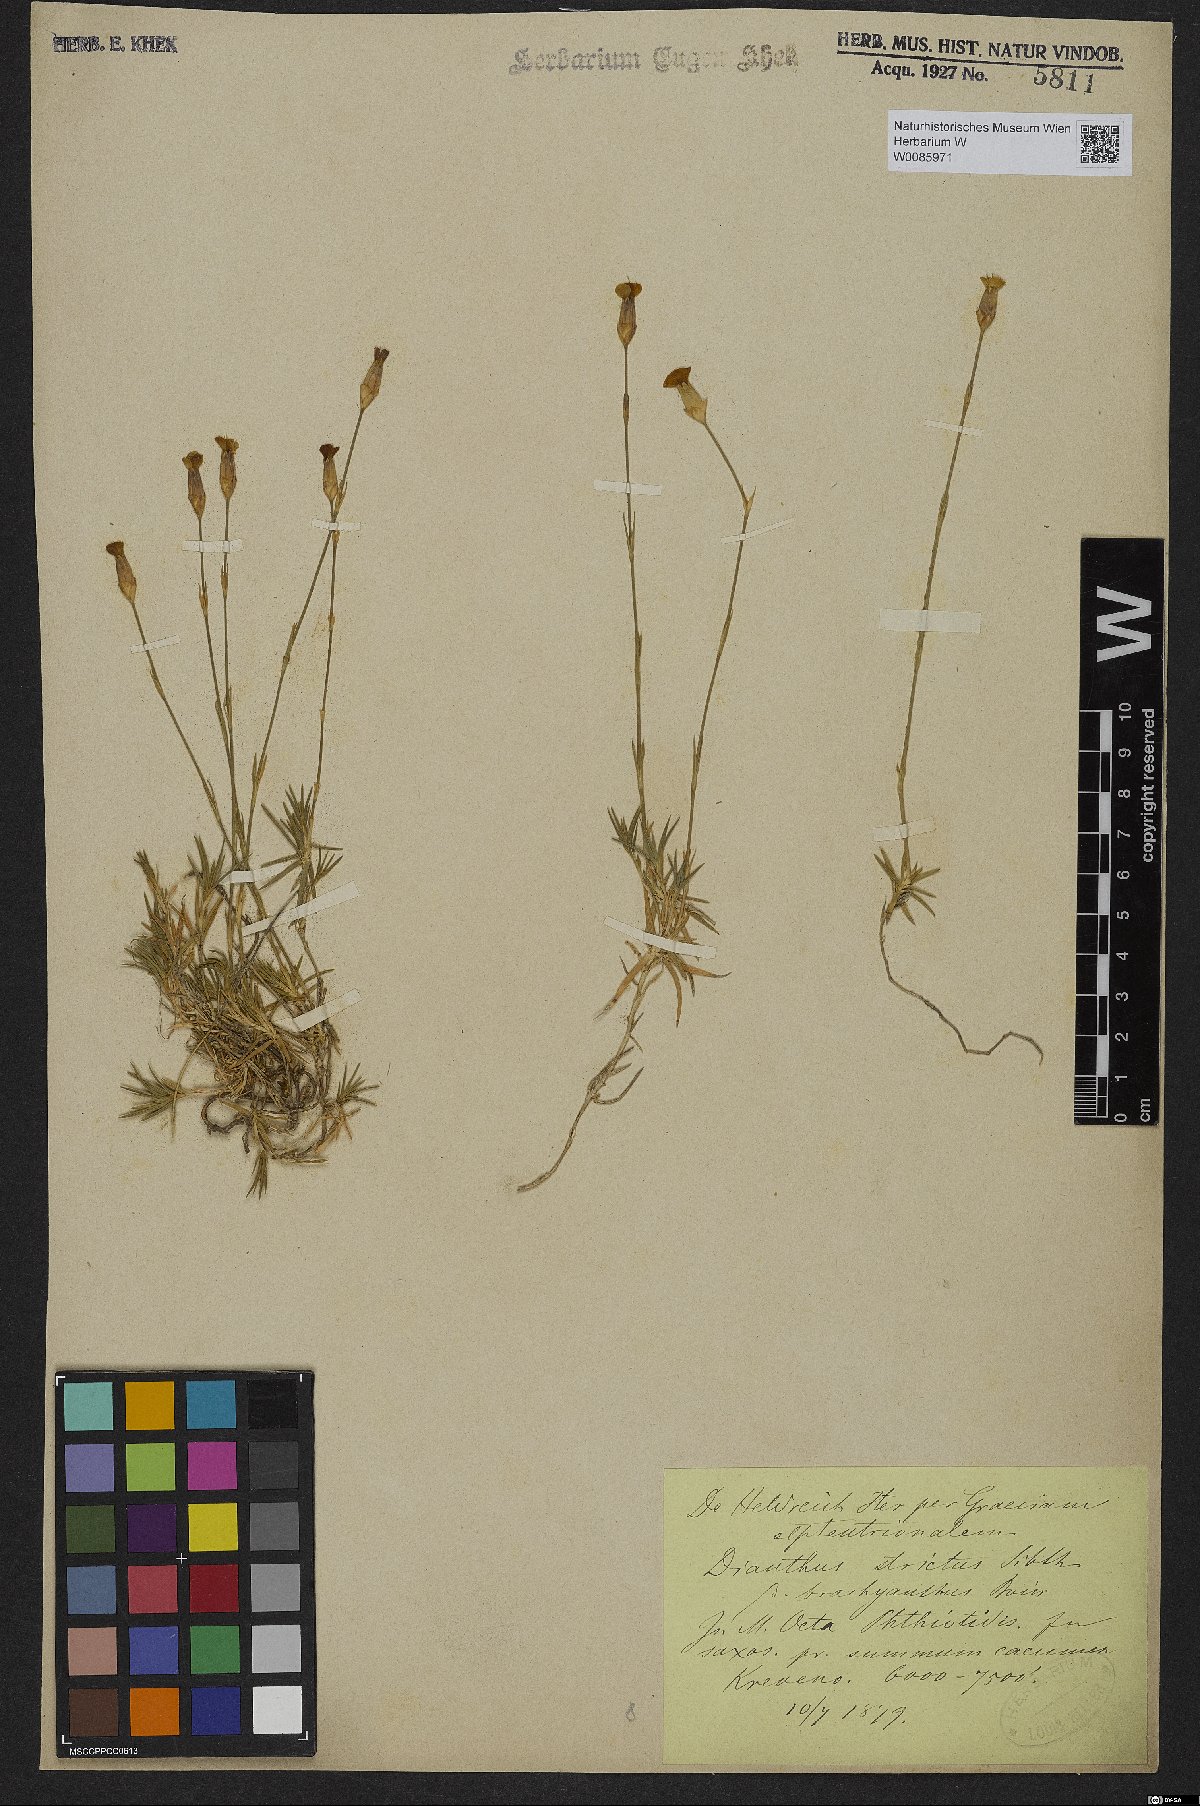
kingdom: Plantae
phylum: Tracheophyta
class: Magnoliopsida
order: Caryophyllales
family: Caryophyllaceae
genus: Dianthus
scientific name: Dianthus petraeus
